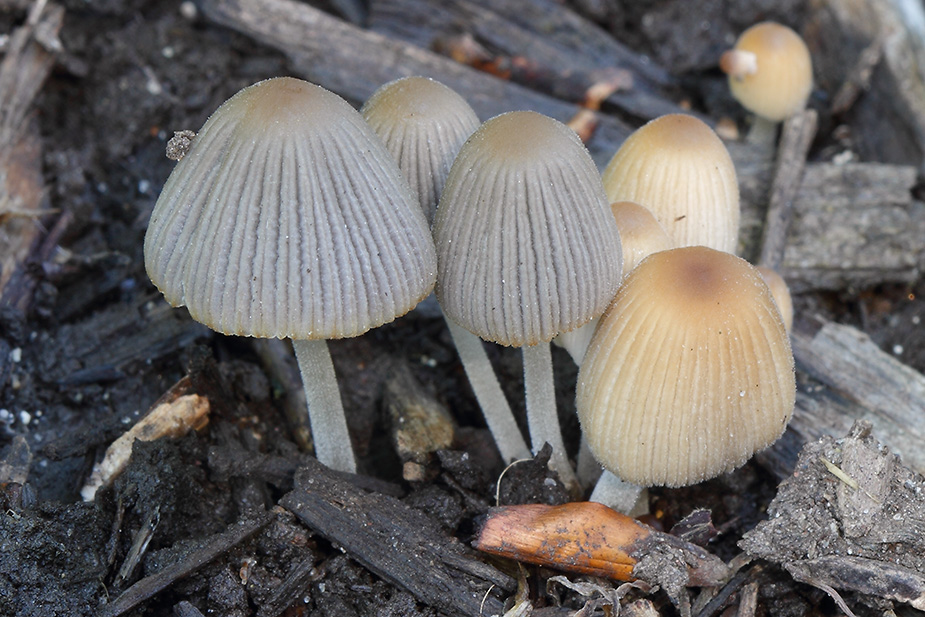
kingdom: Fungi
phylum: Basidiomycota
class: Agaricomycetes
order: Agaricales
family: Psathyrellaceae
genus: Tulosesus
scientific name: Tulosesus hiascens
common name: udspilet blækhat
